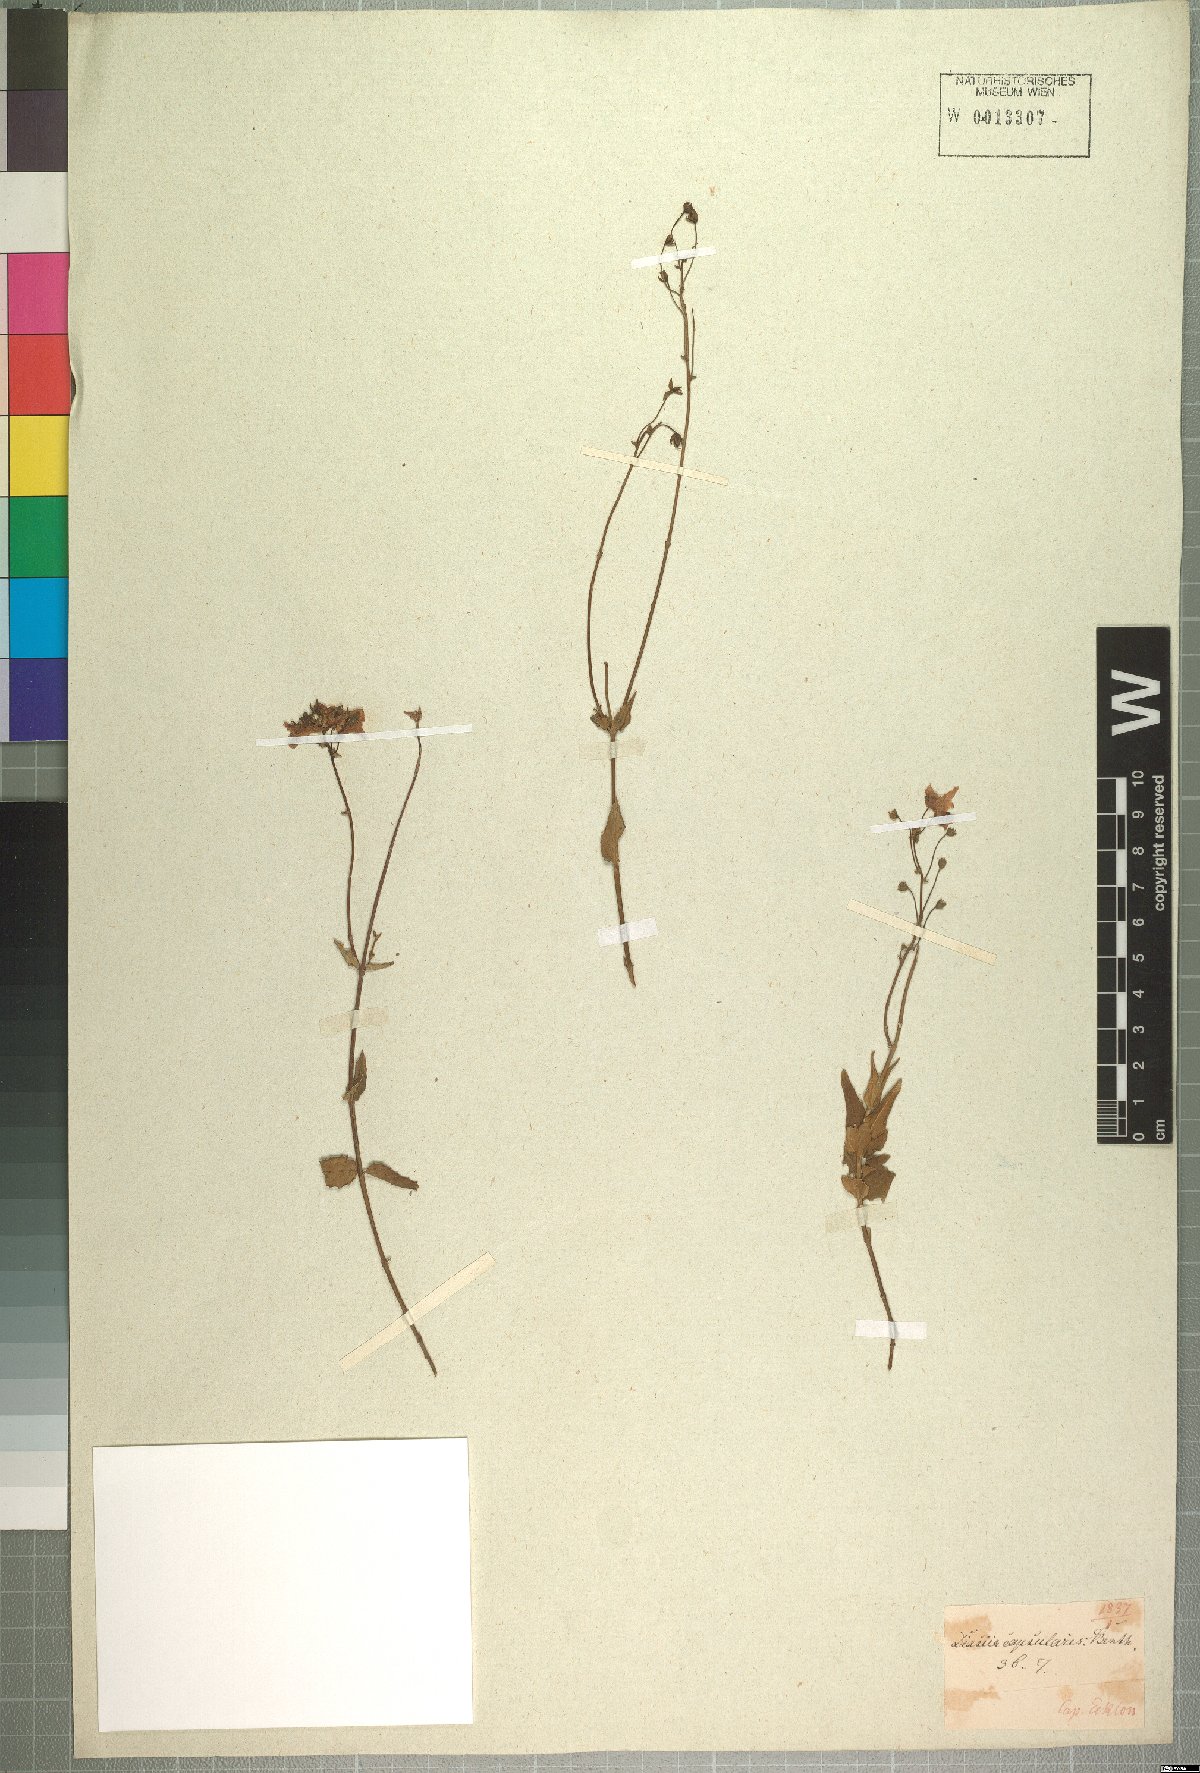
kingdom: Plantae
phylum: Tracheophyta
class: Magnoliopsida
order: Lamiales
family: Scrophulariaceae
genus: Diascia
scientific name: Diascia capsularis
